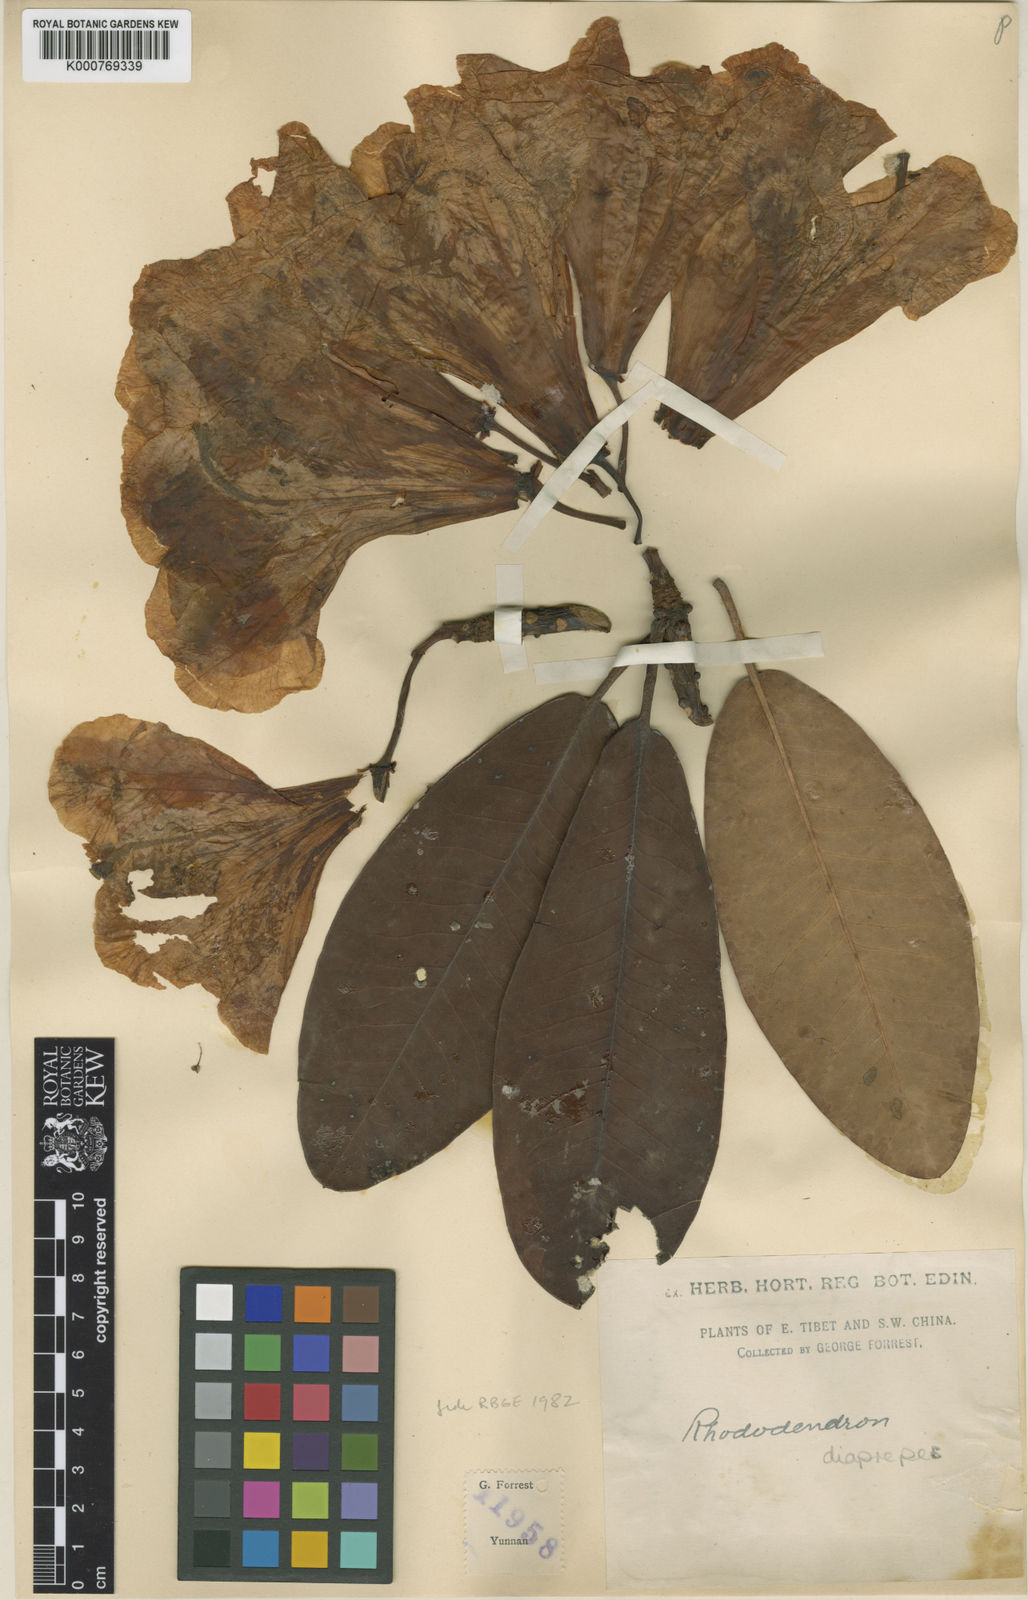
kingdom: Plantae
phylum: Tracheophyta
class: Magnoliopsida
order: Ericales
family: Ericaceae
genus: Rhododendron
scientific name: Rhododendron decorum
